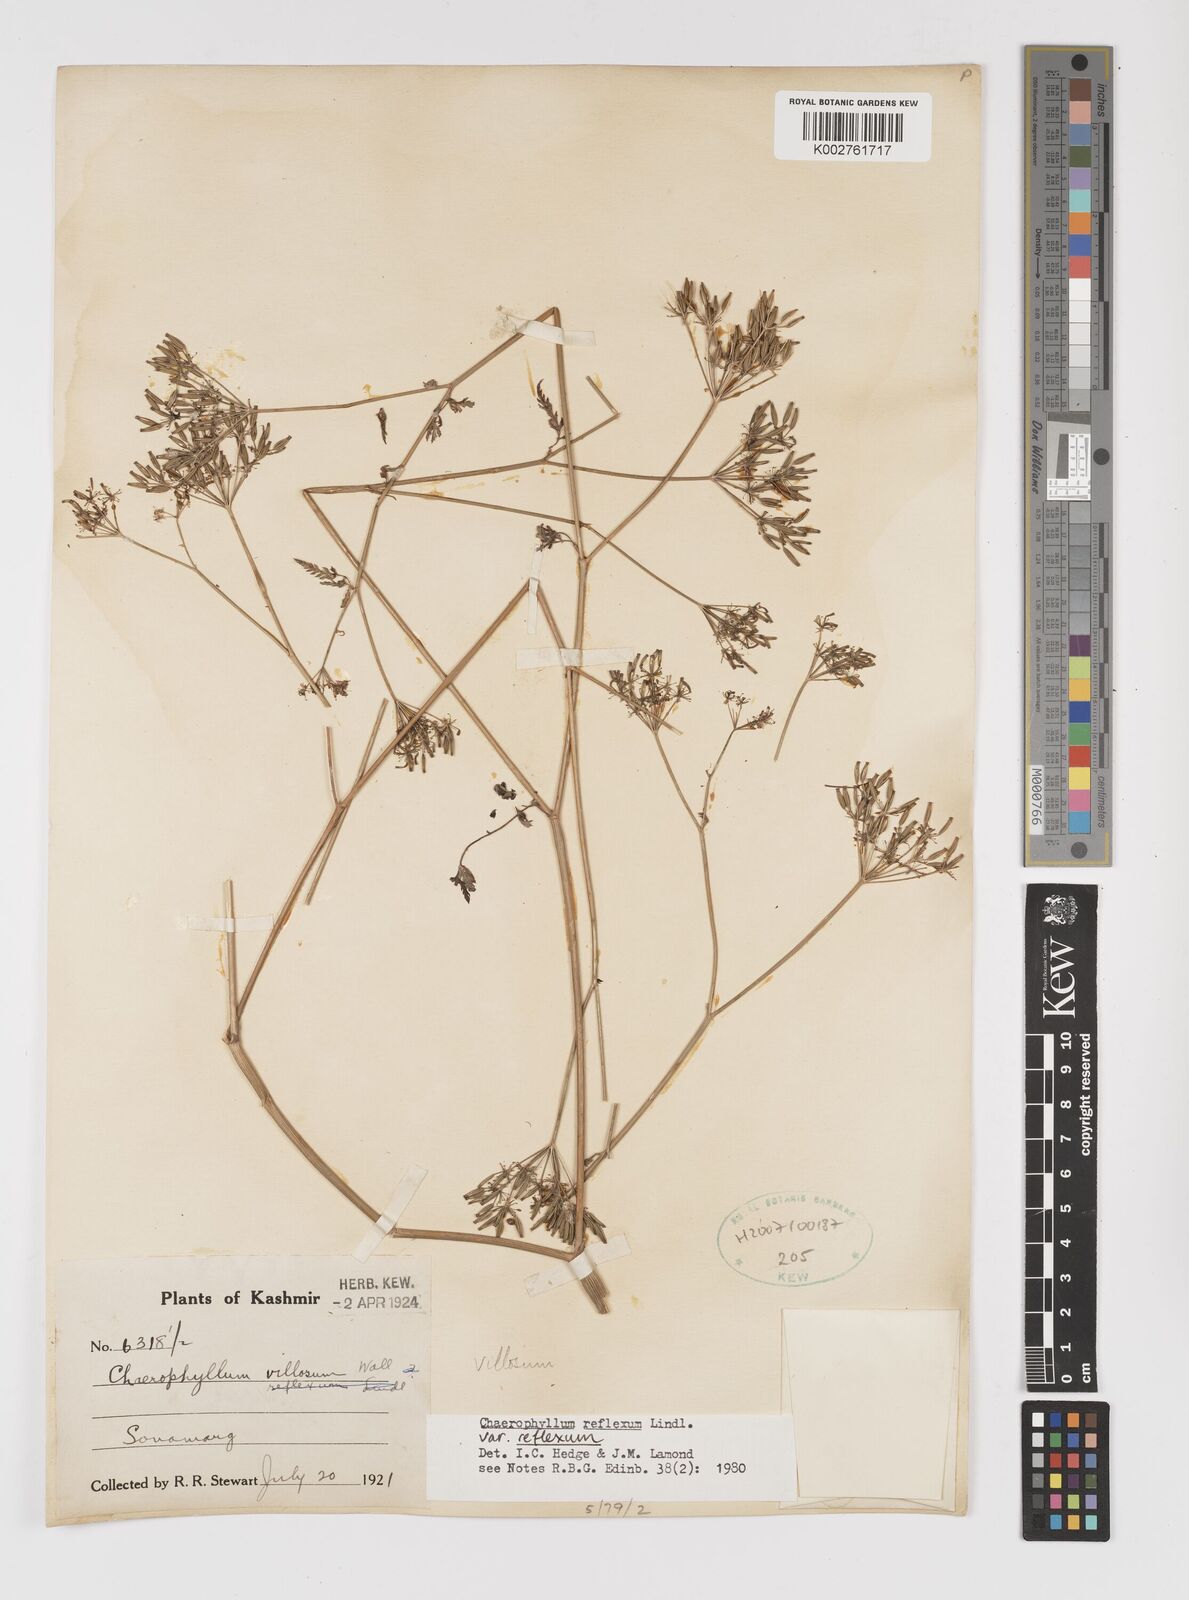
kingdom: Plantae
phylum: Tracheophyta
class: Magnoliopsida
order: Apiales
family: Apiaceae
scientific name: Apiaceae
